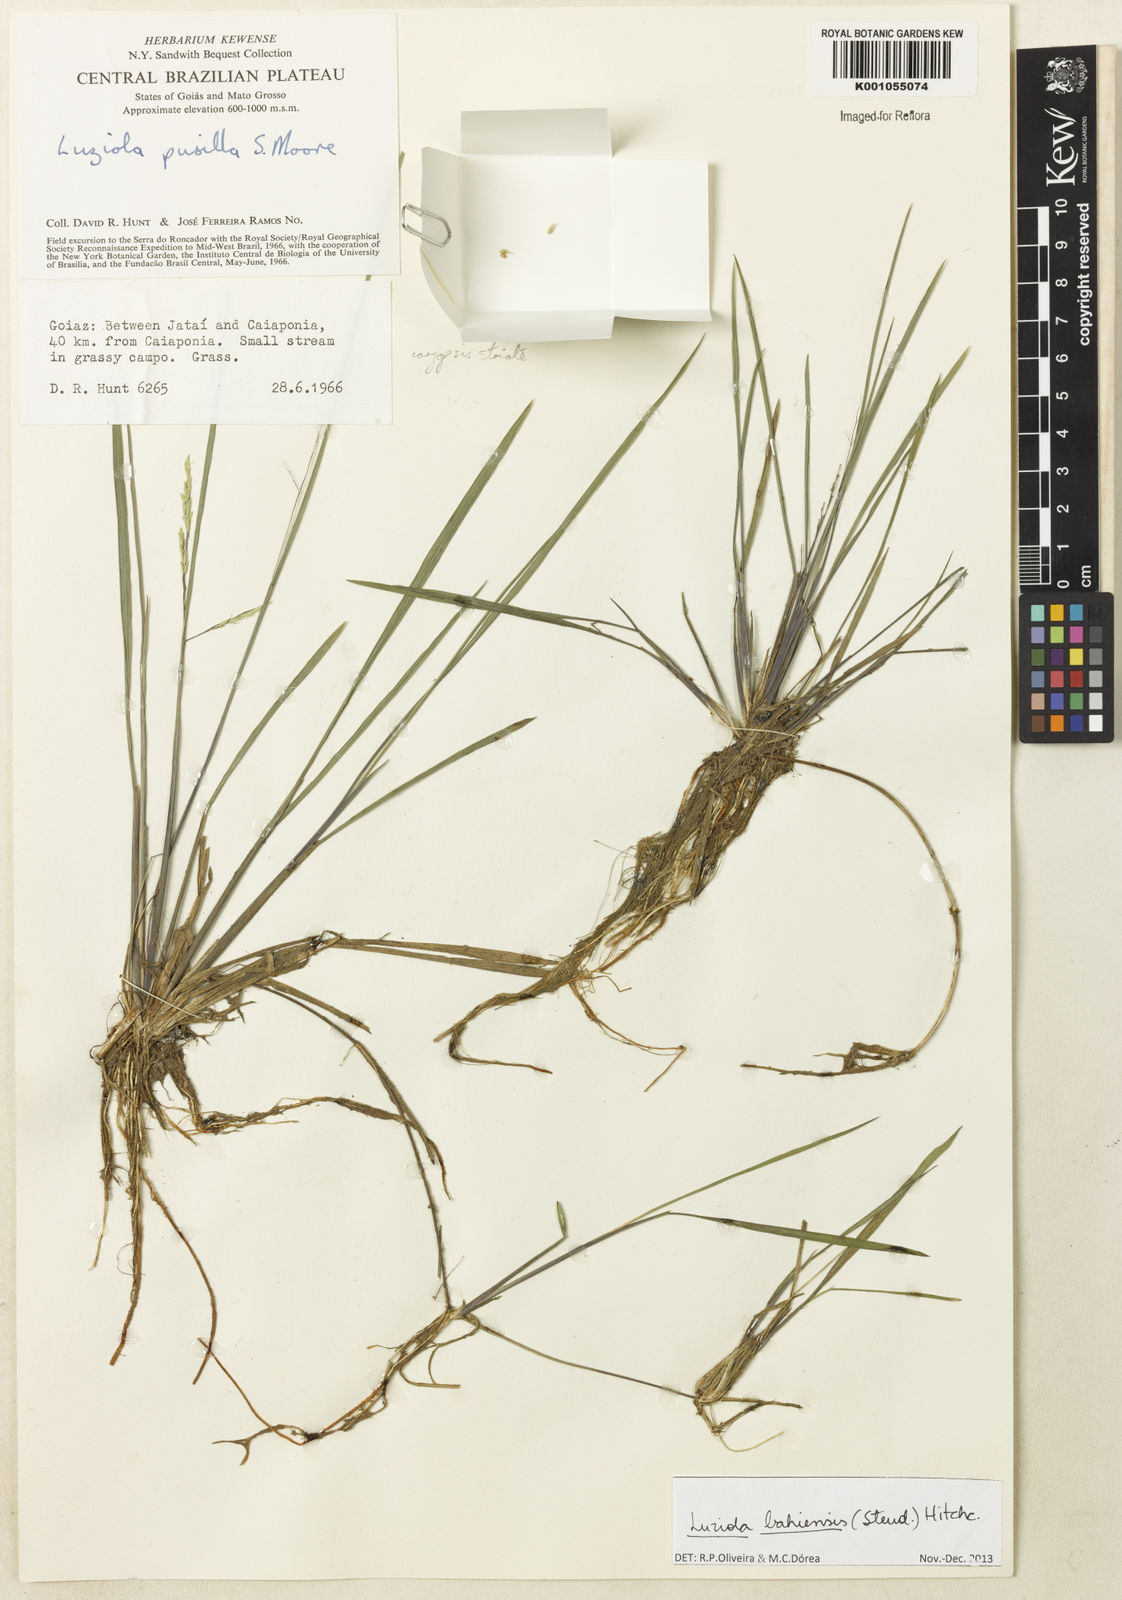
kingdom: Plantae
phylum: Tracheophyta
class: Liliopsida
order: Poales
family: Poaceae
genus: Luziola
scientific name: Luziola bahiensis
